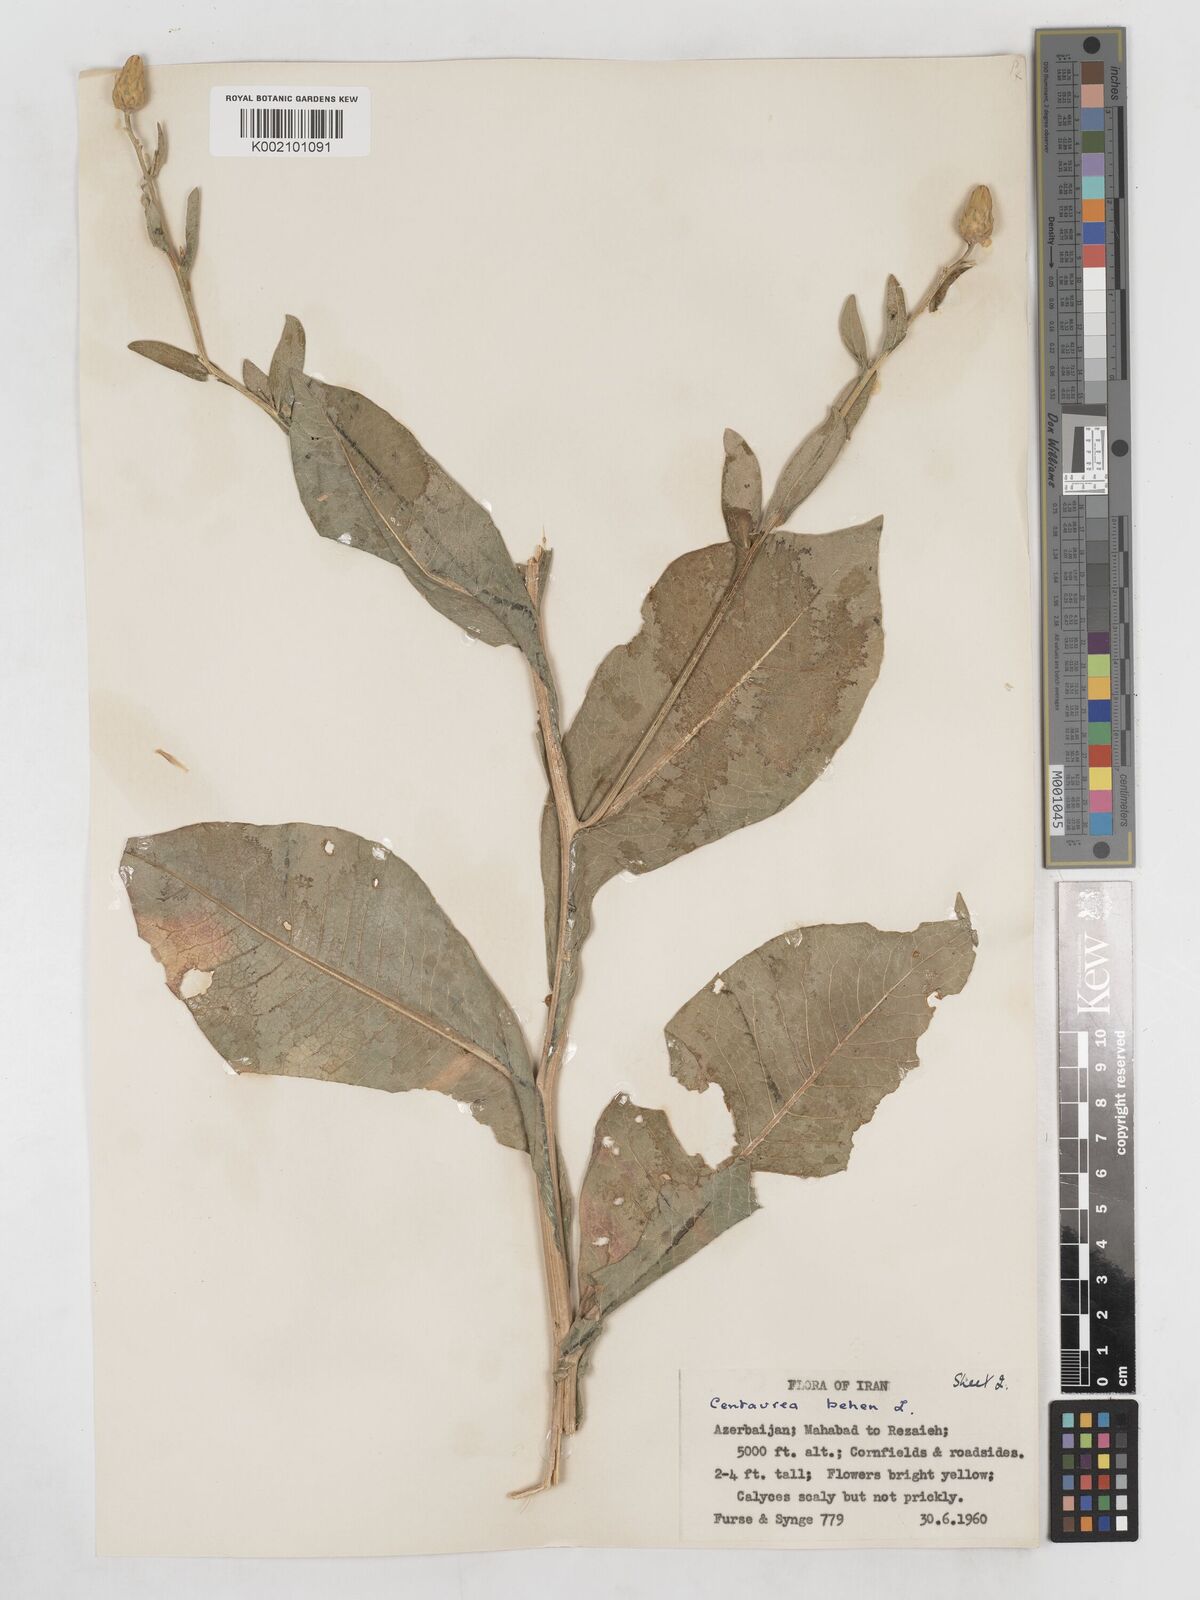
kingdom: Plantae
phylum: Tracheophyta
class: Magnoliopsida
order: Asterales
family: Asteraceae
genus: Centaurea
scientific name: Centaurea behen
